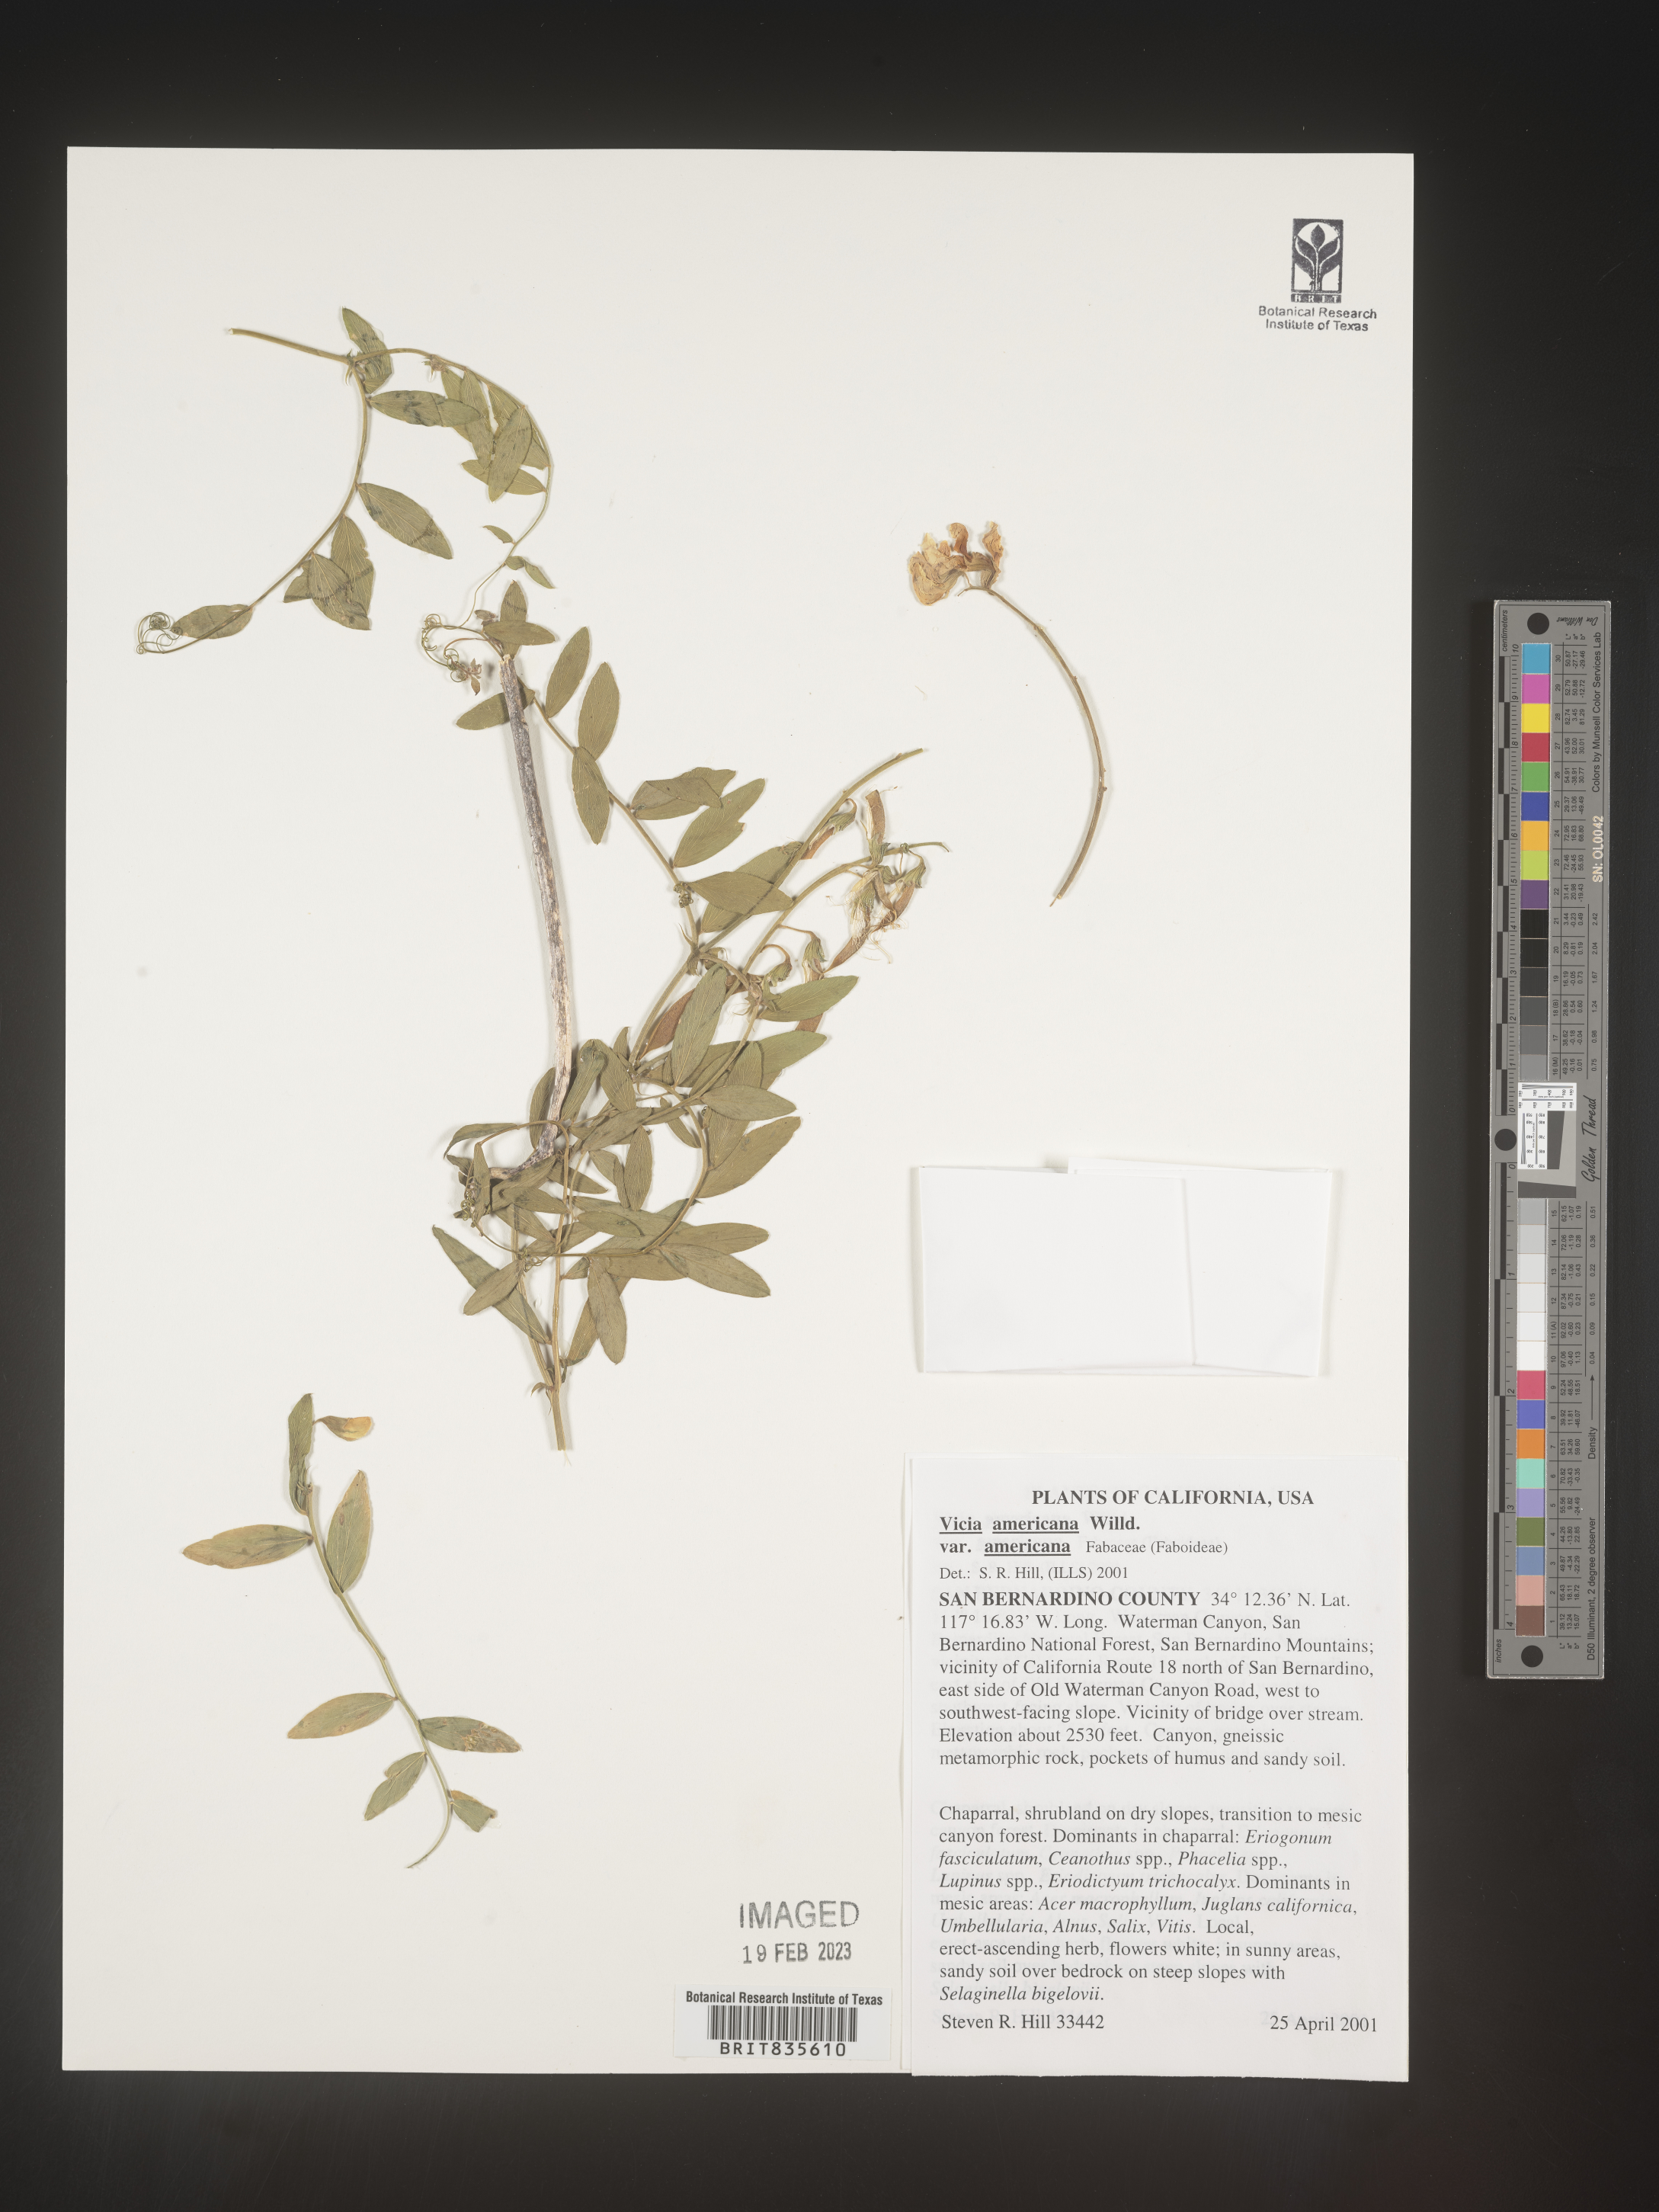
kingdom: Plantae
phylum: Tracheophyta
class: Magnoliopsida
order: Fabales
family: Fabaceae
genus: Vicia
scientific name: Vicia americana
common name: American vetch
